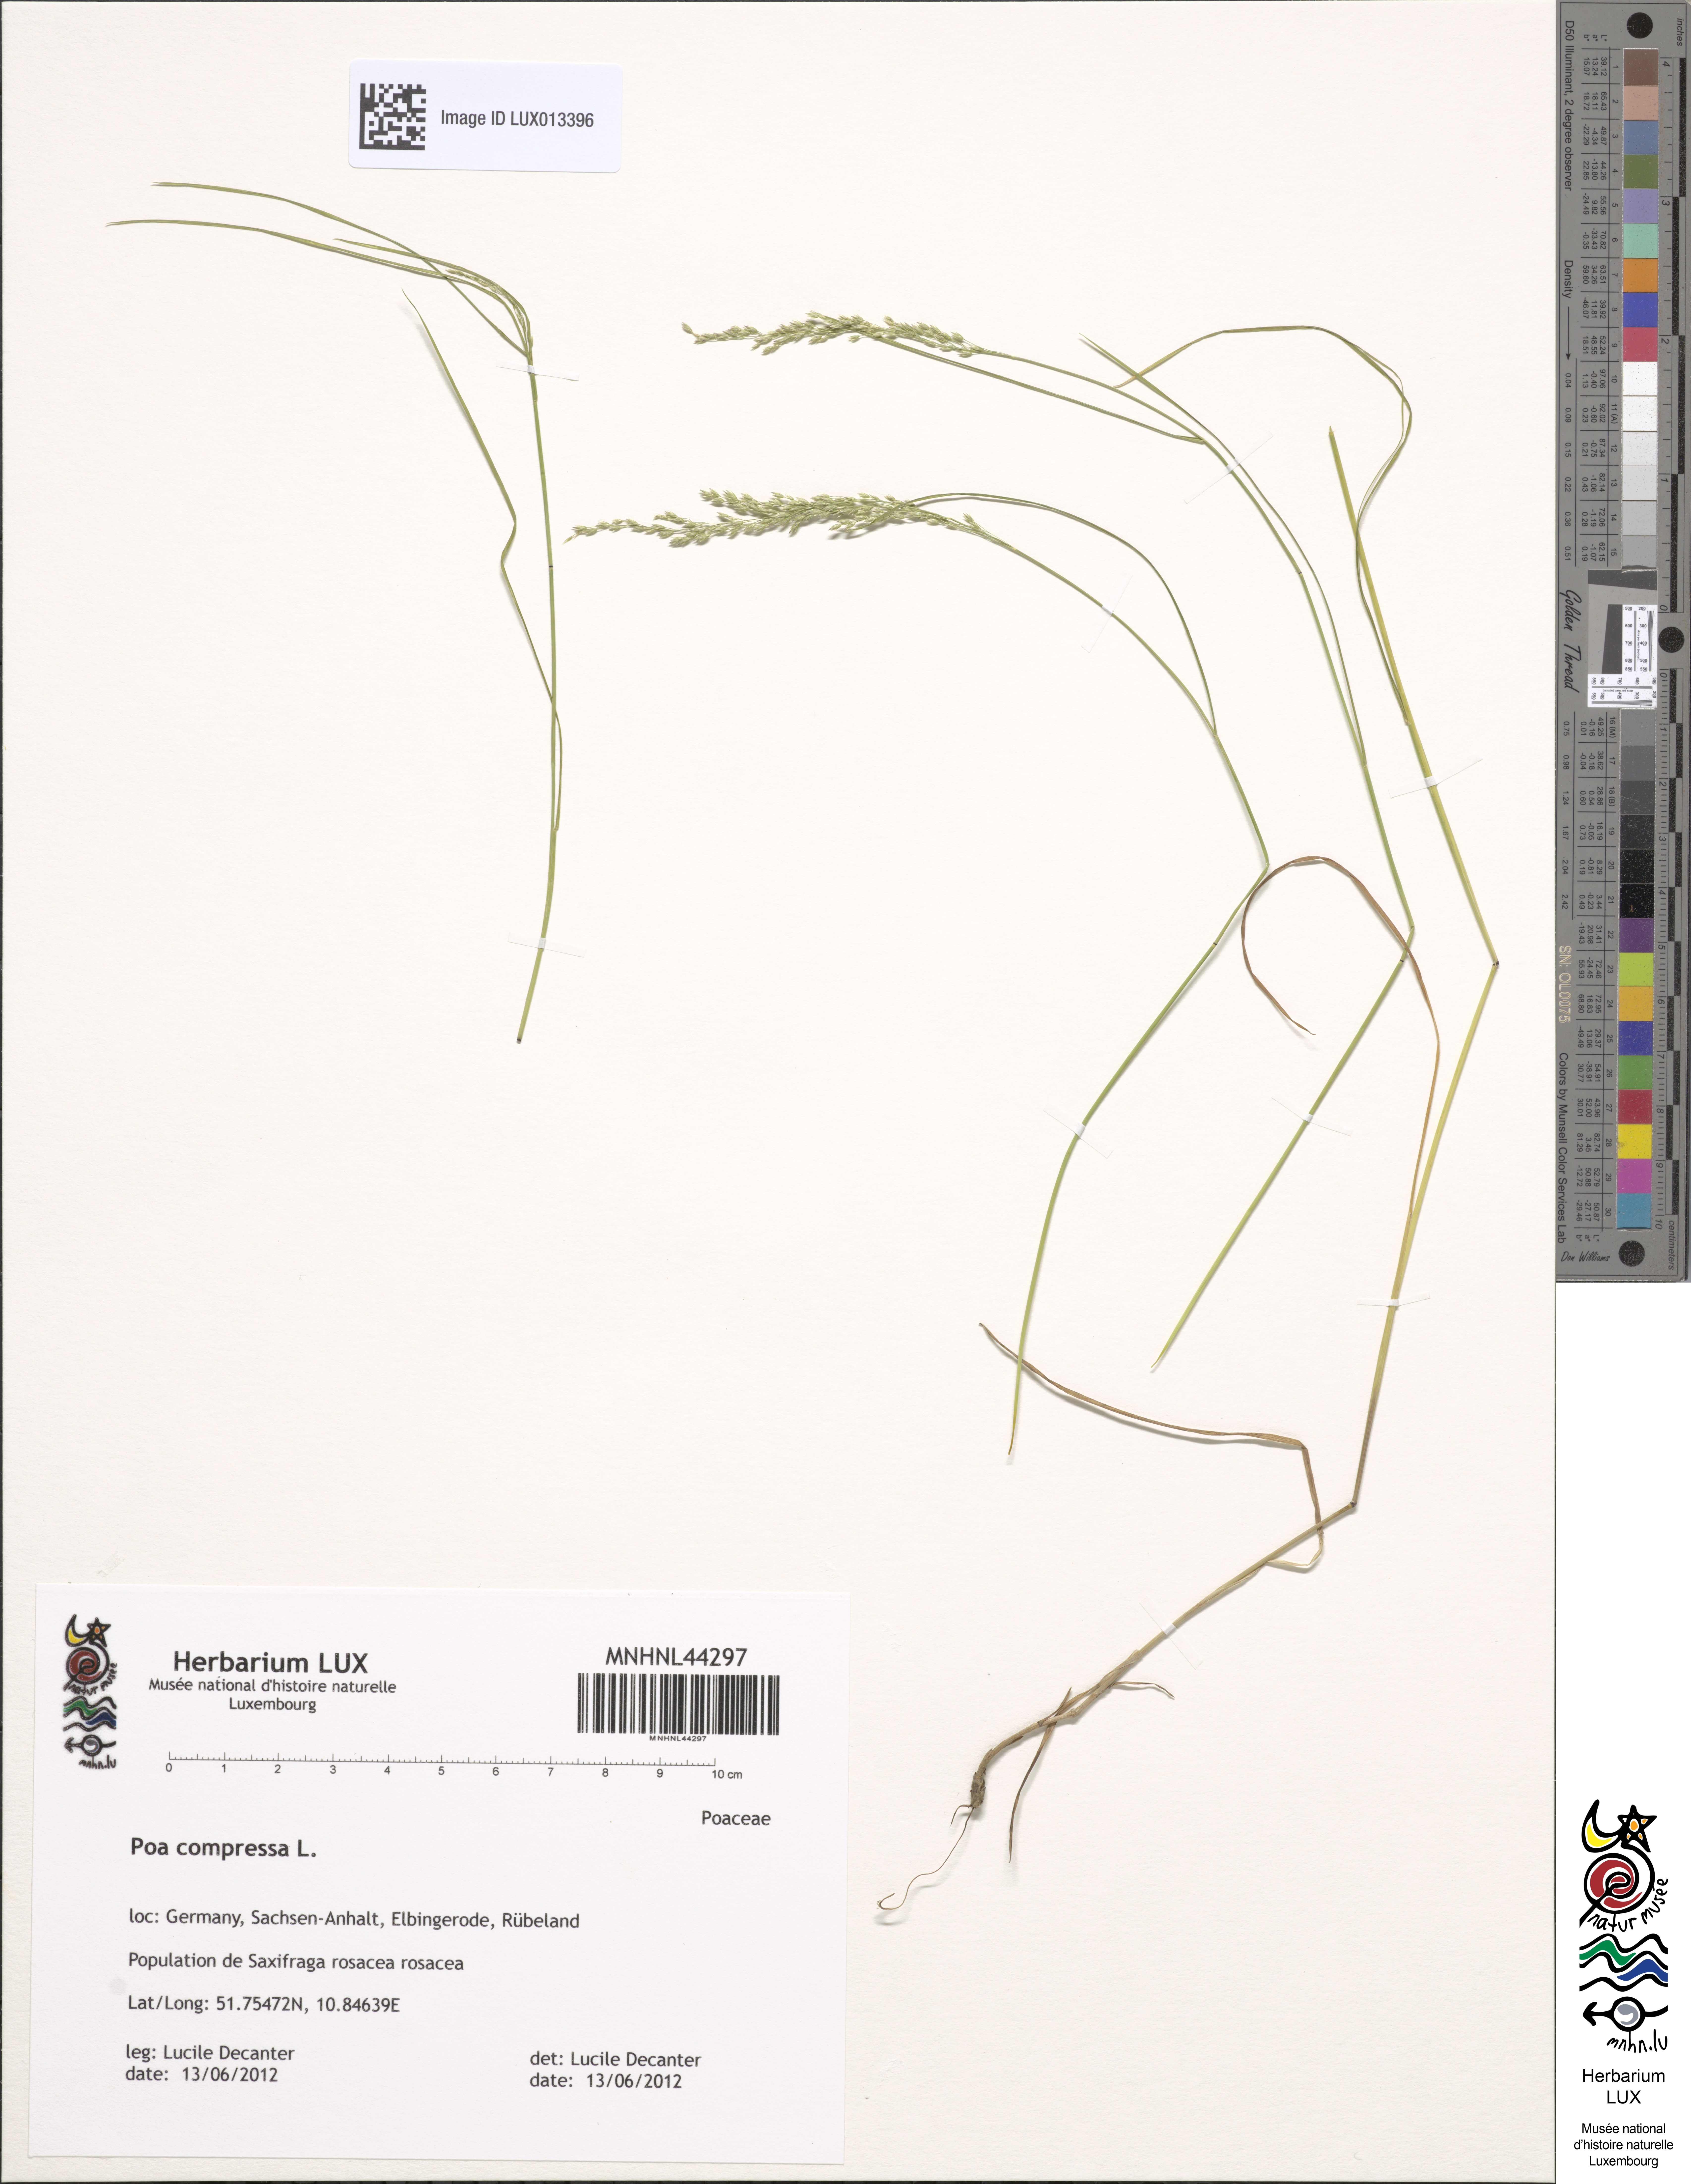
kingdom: Plantae
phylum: Tracheophyta
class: Liliopsida
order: Poales
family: Poaceae
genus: Poa
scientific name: Poa compressa
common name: Canada bluegrass
